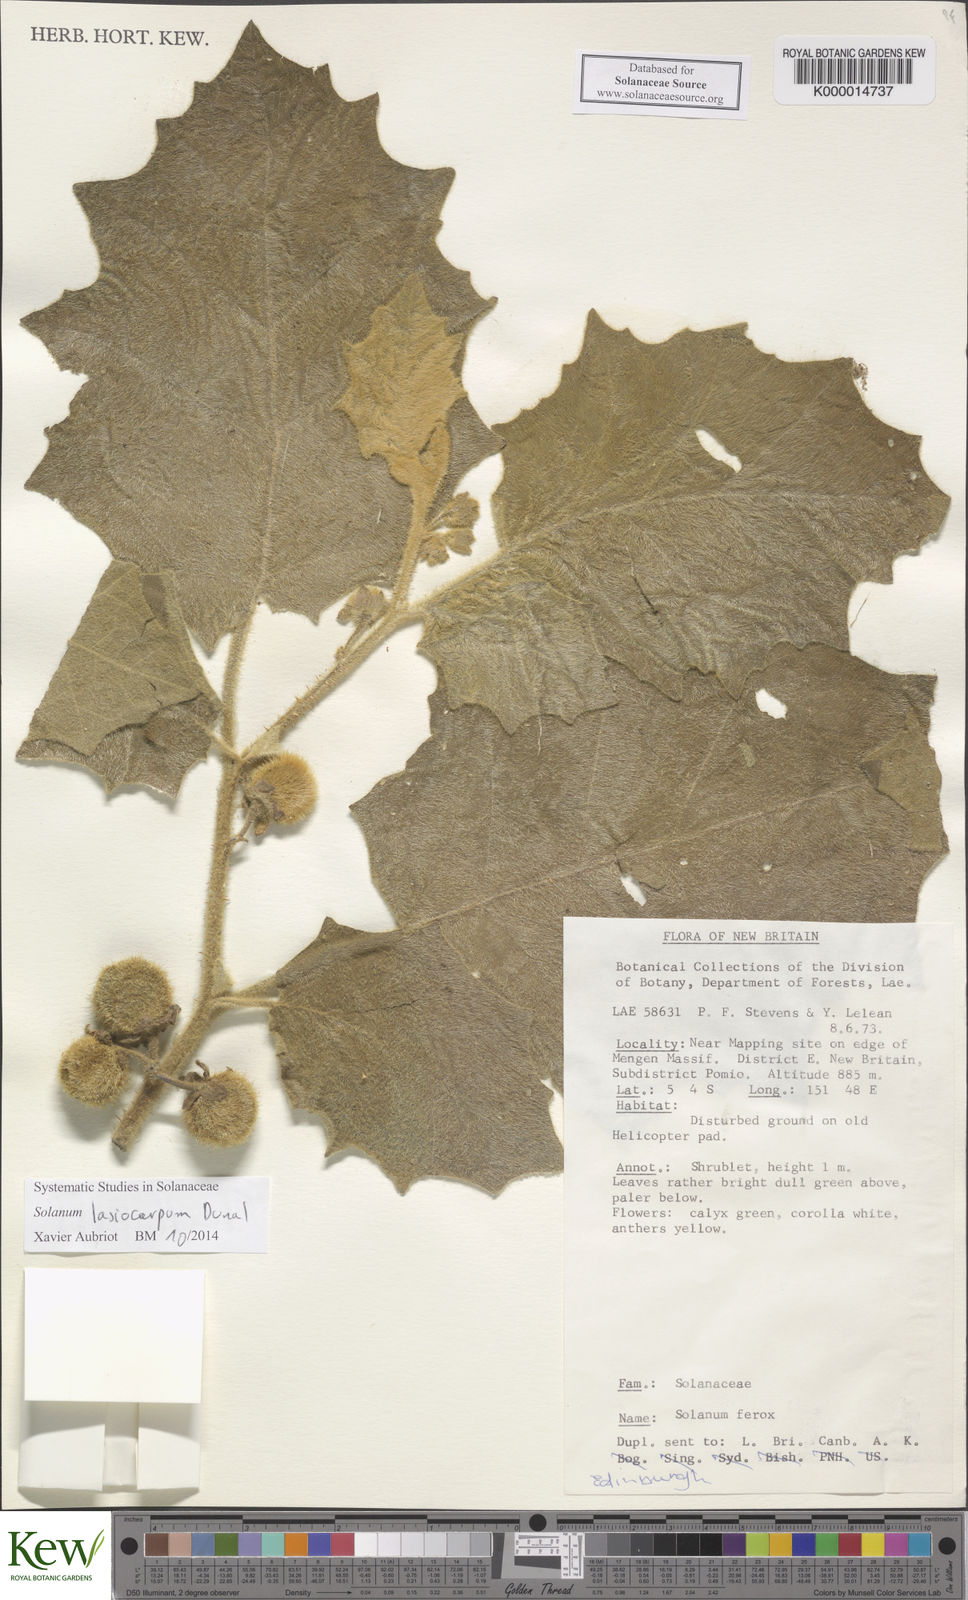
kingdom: Plantae
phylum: Tracheophyta
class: Magnoliopsida
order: Solanales
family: Solanaceae
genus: Solanum
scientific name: Solanum lasiocarpum
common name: Indian nightshade
